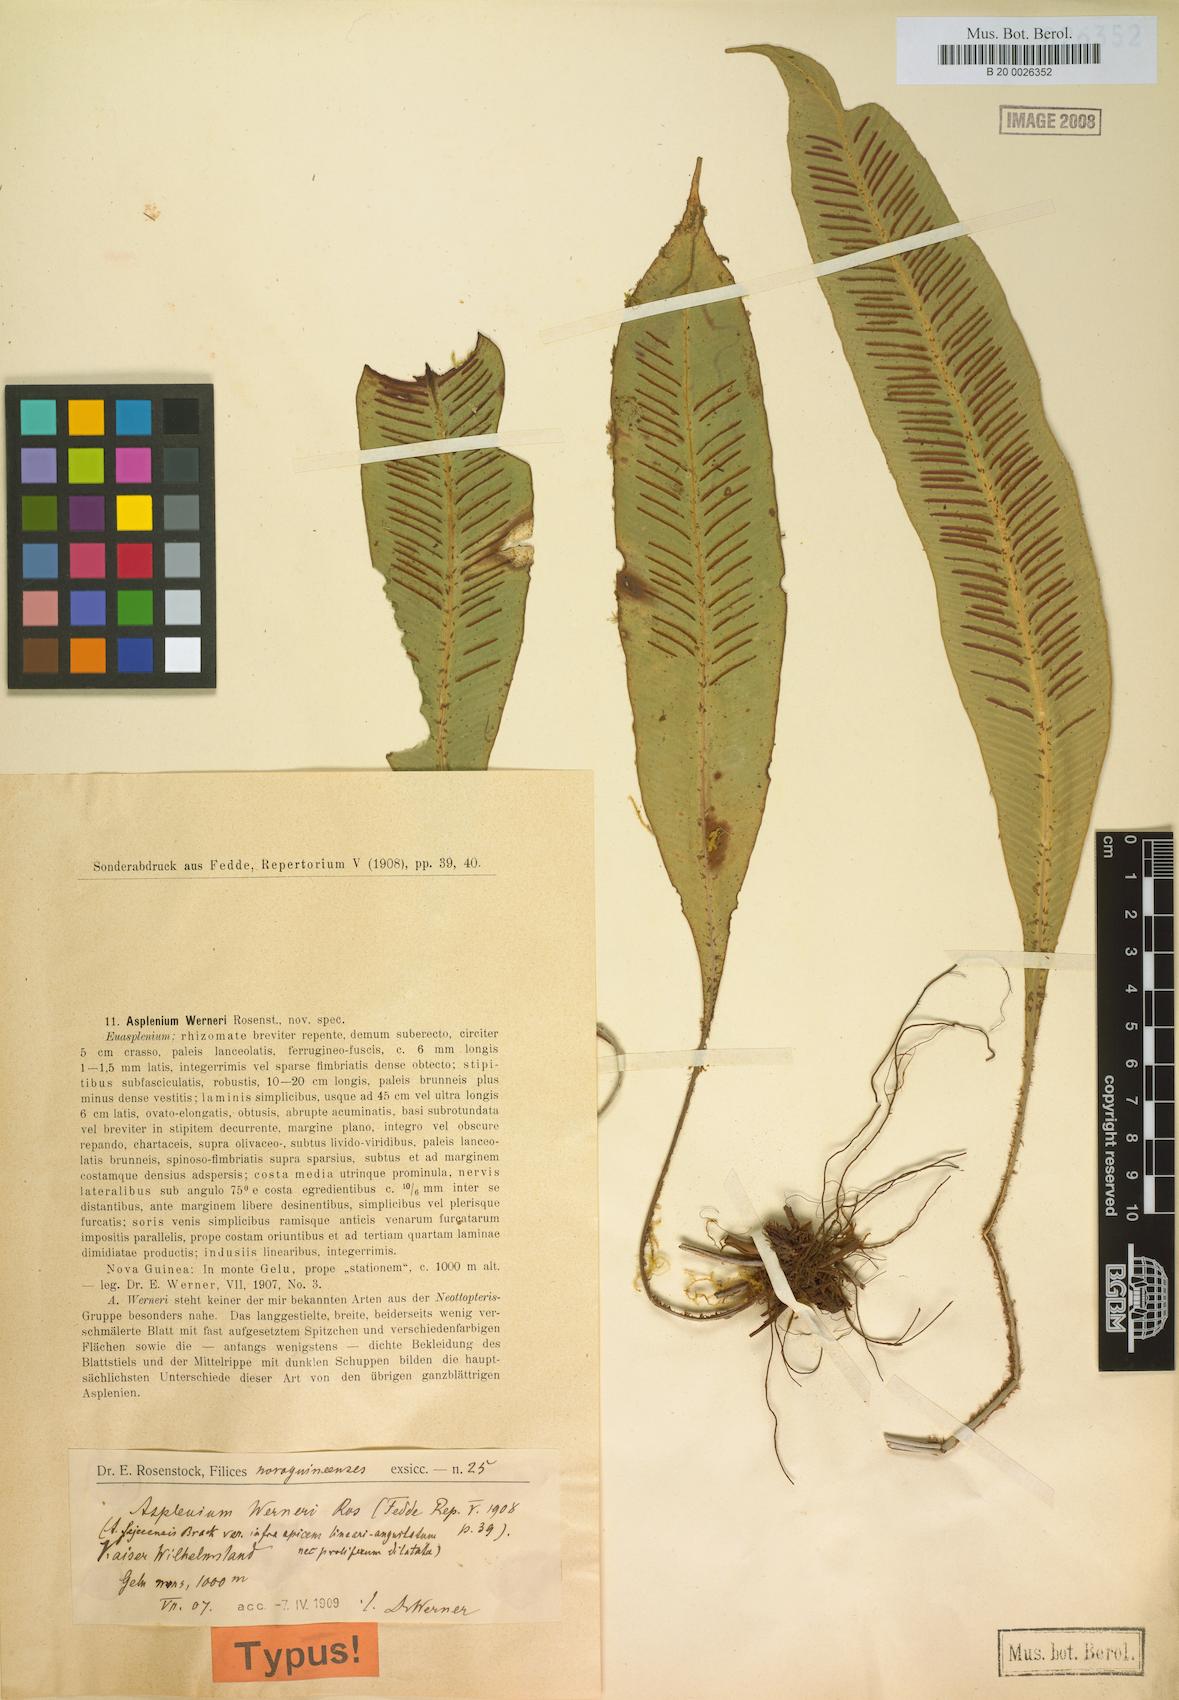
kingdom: Plantae
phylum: Tracheophyta
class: Polypodiopsida
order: Polypodiales
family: Aspleniaceae
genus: Asplenium
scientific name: Asplenium werneri
